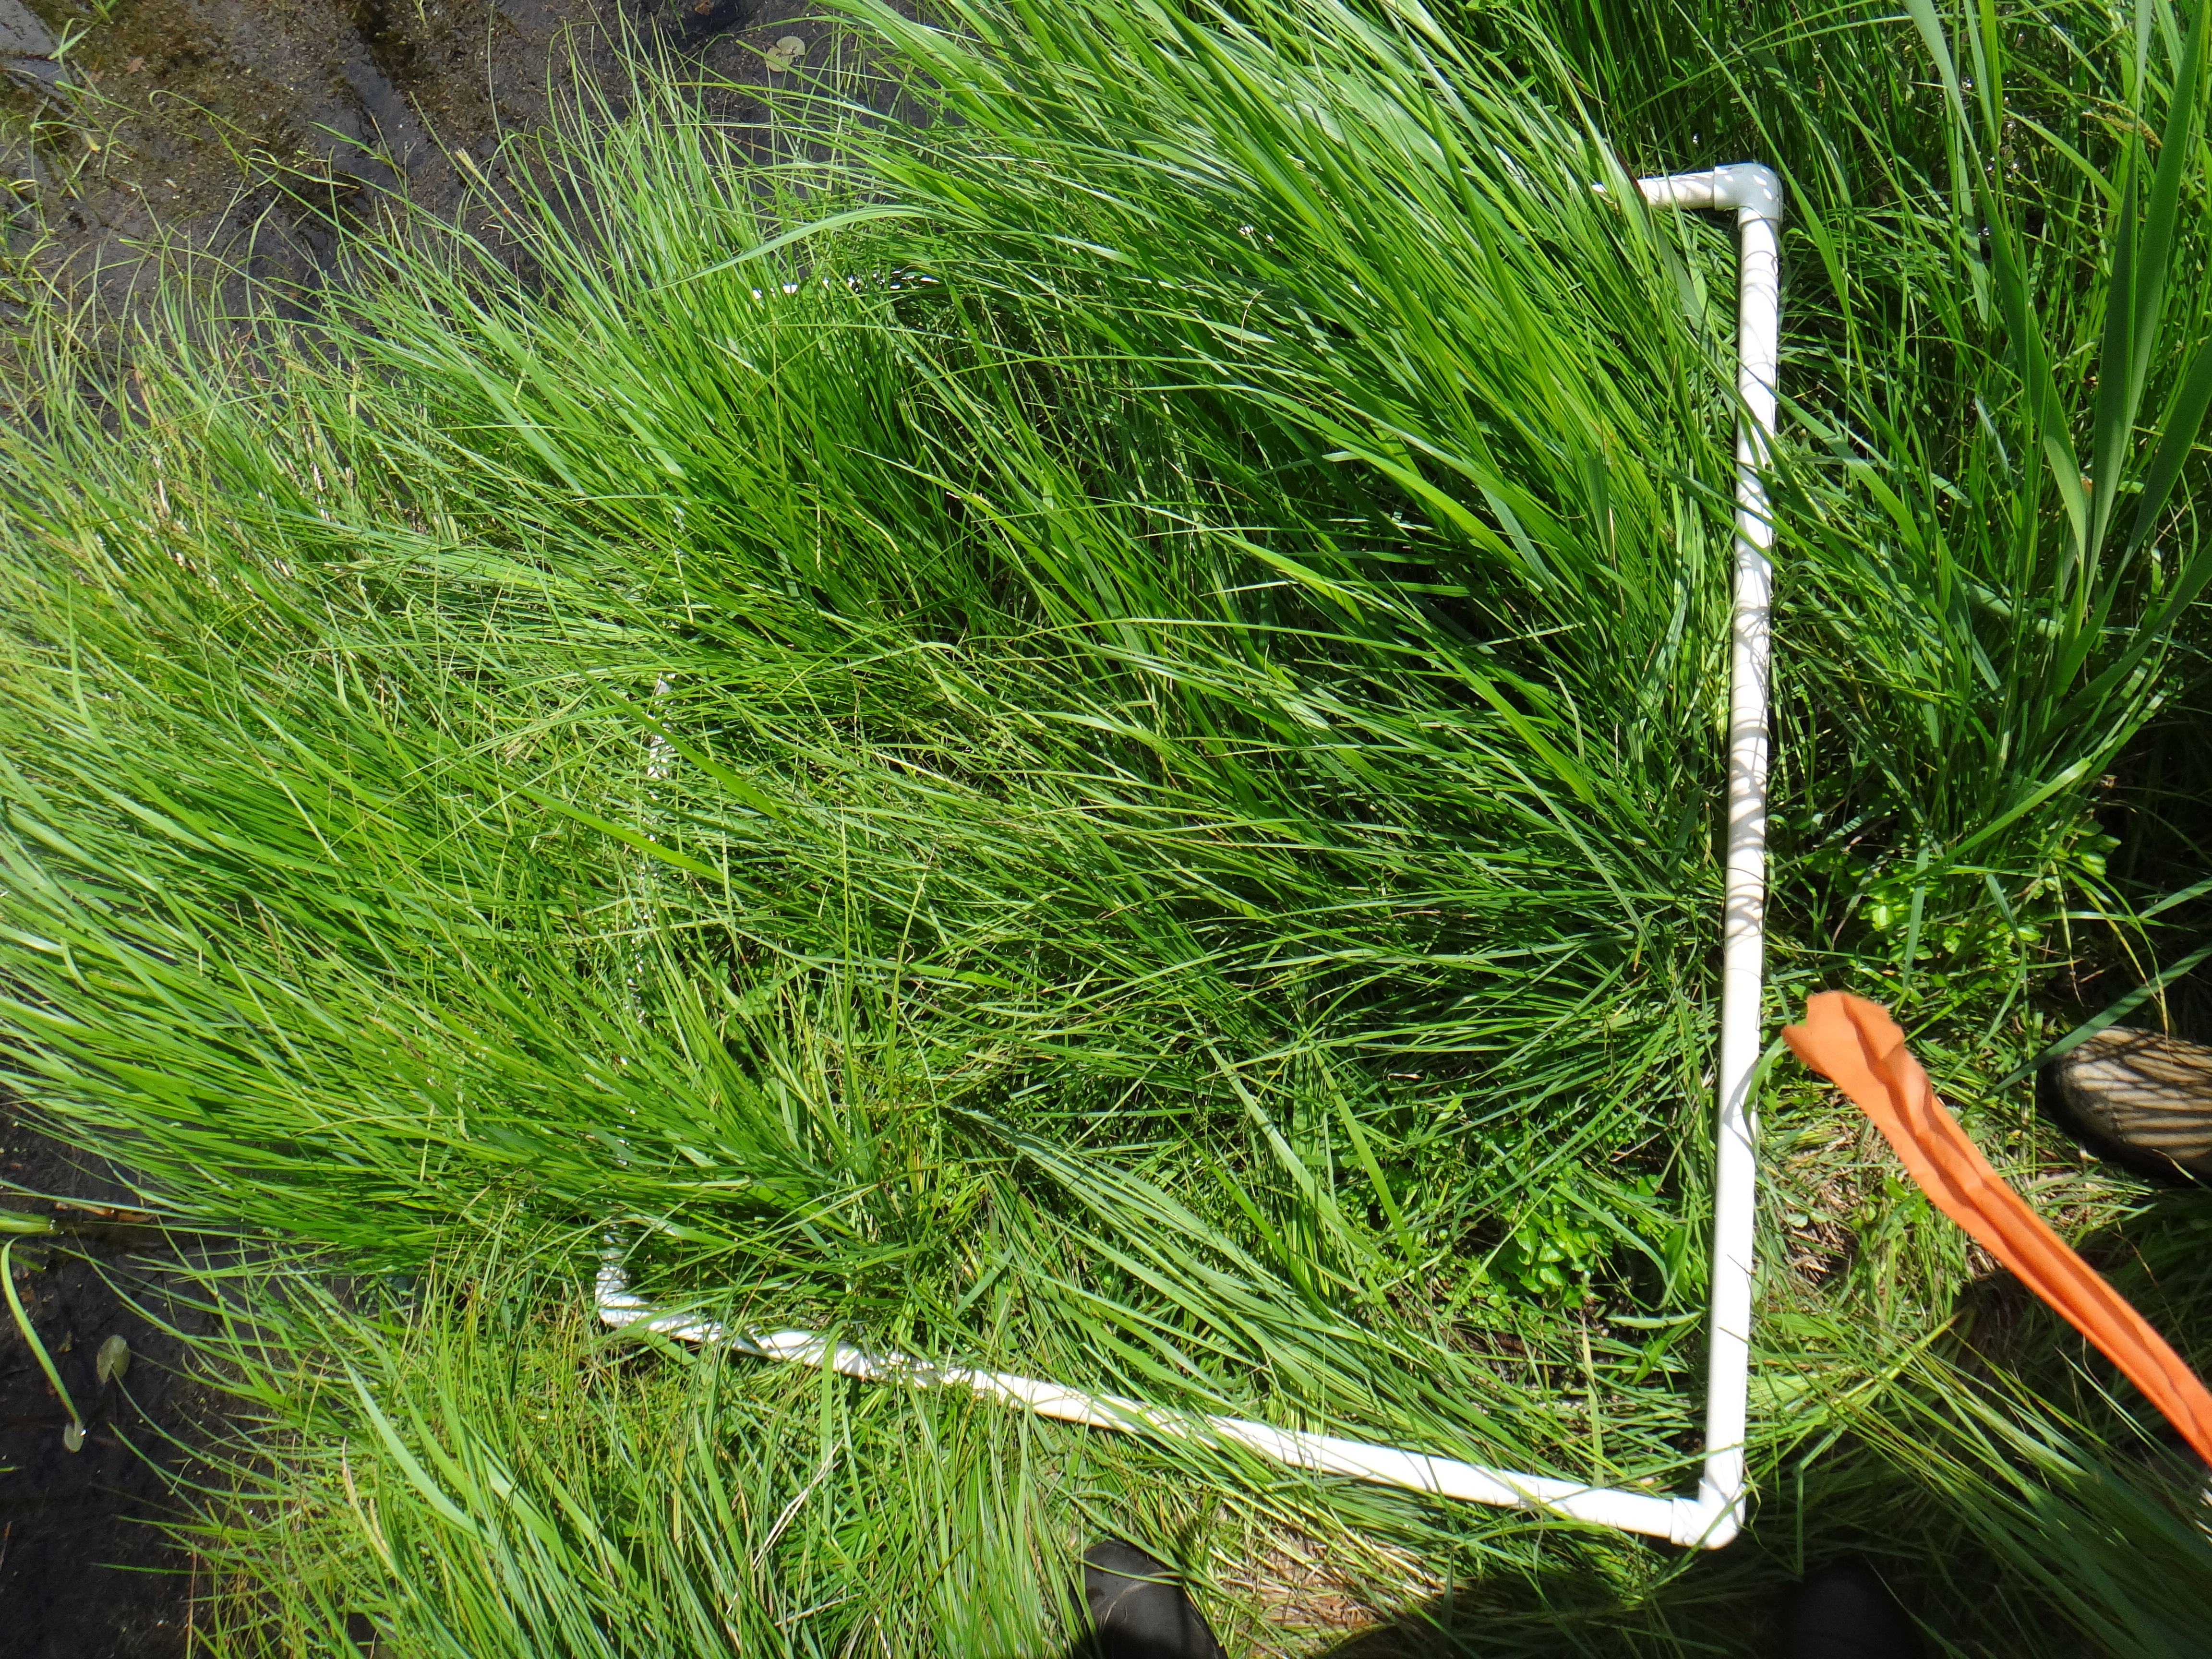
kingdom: Plantae
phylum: Tracheophyta
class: Magnoliopsida
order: Gentianales
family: Rubiaceae
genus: Galium
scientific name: Galium trifidum
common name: Small bedstraw
